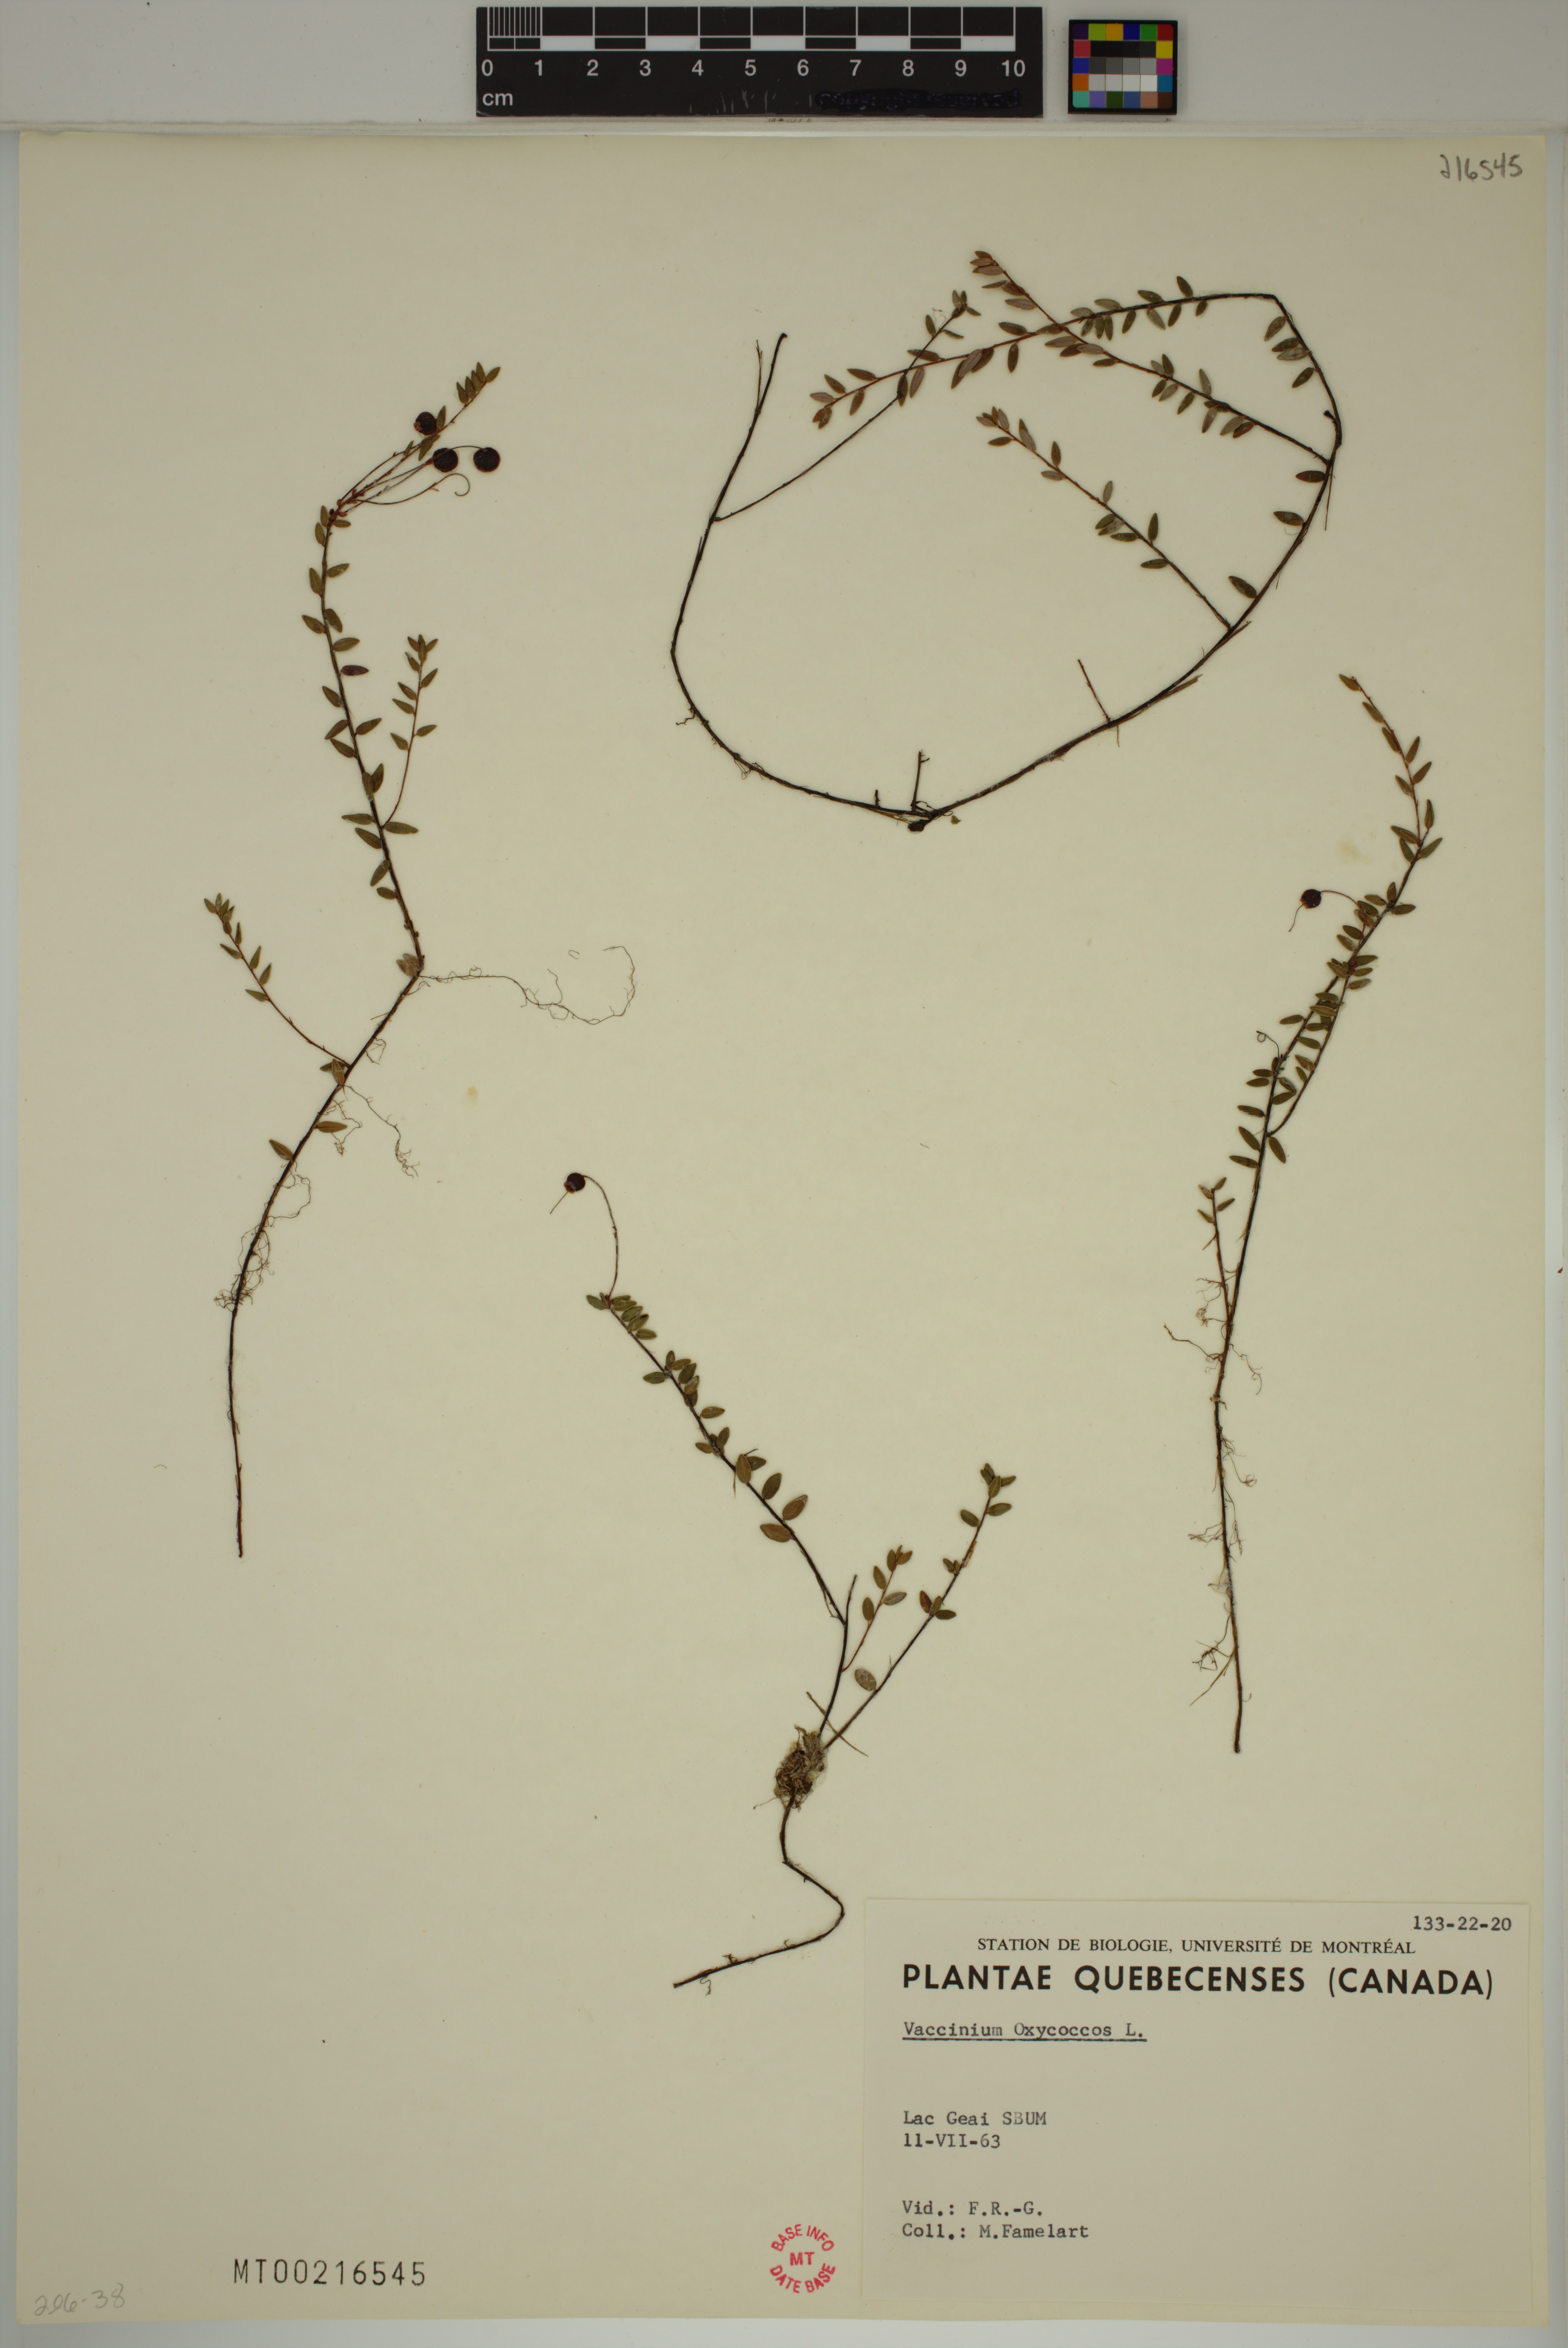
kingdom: Plantae
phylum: Tracheophyta
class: Magnoliopsida
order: Ericales
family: Ericaceae
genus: Vaccinium
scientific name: Vaccinium oxycoccos
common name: Cranberry
